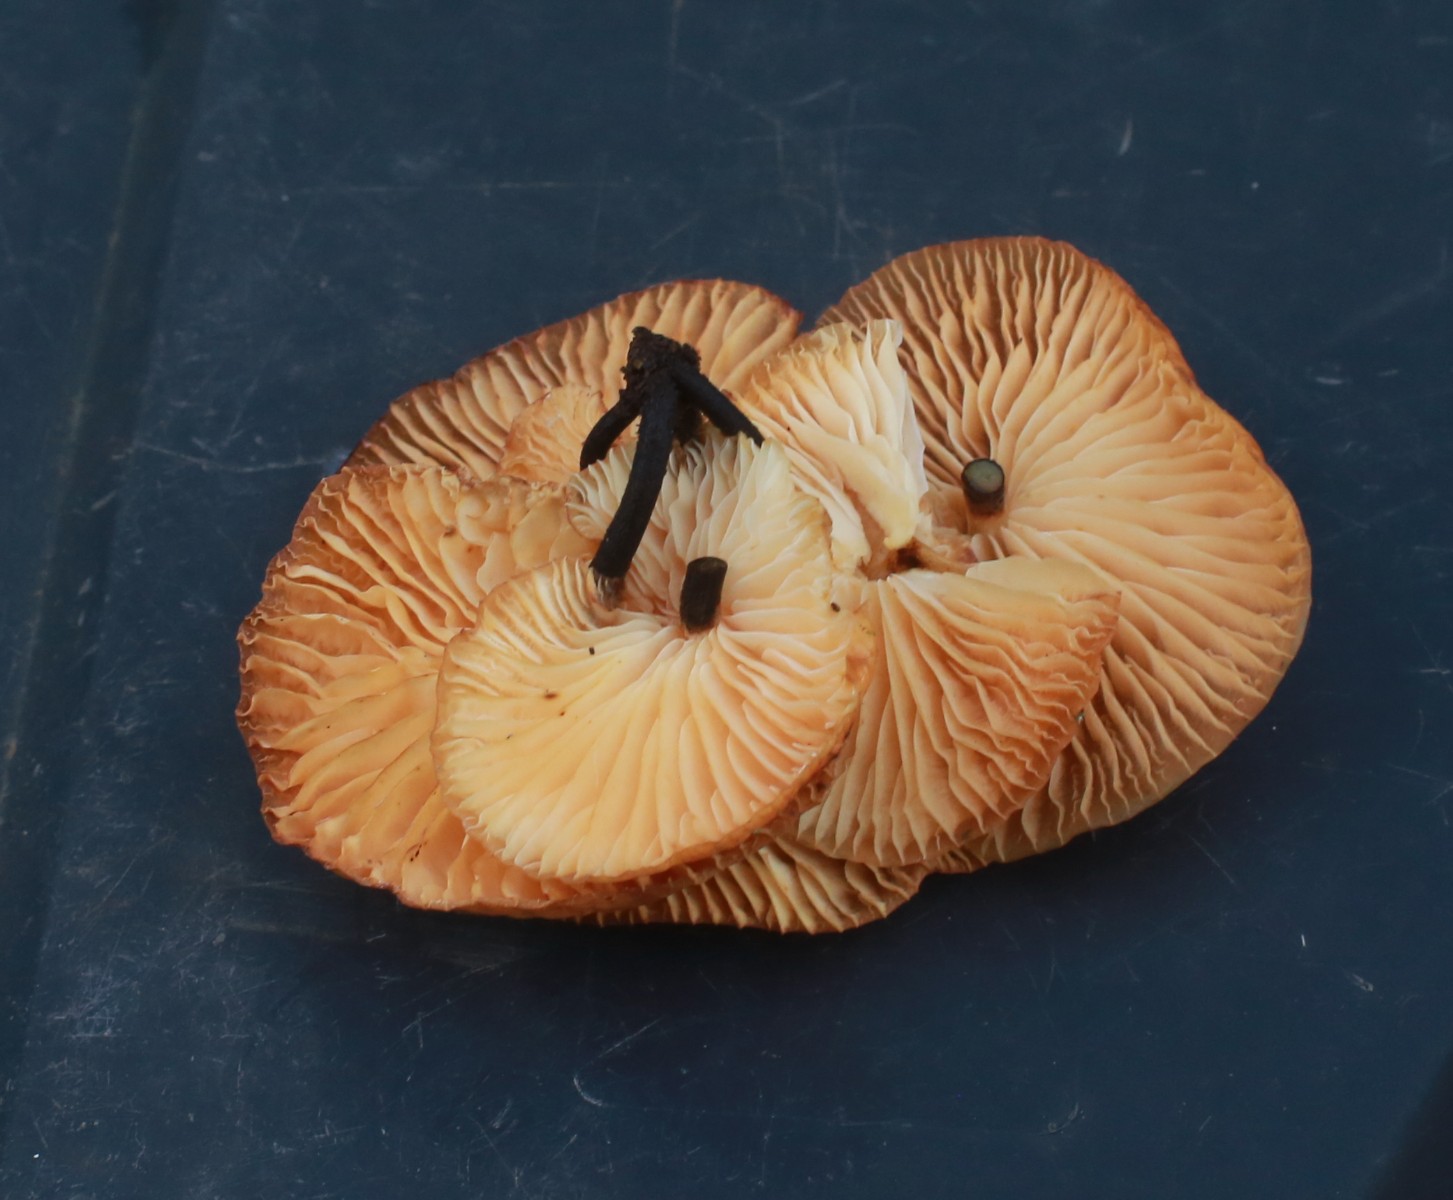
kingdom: Fungi
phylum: Basidiomycota
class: Agaricomycetes
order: Agaricales
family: Physalacriaceae
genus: Flammulina
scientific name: Flammulina
